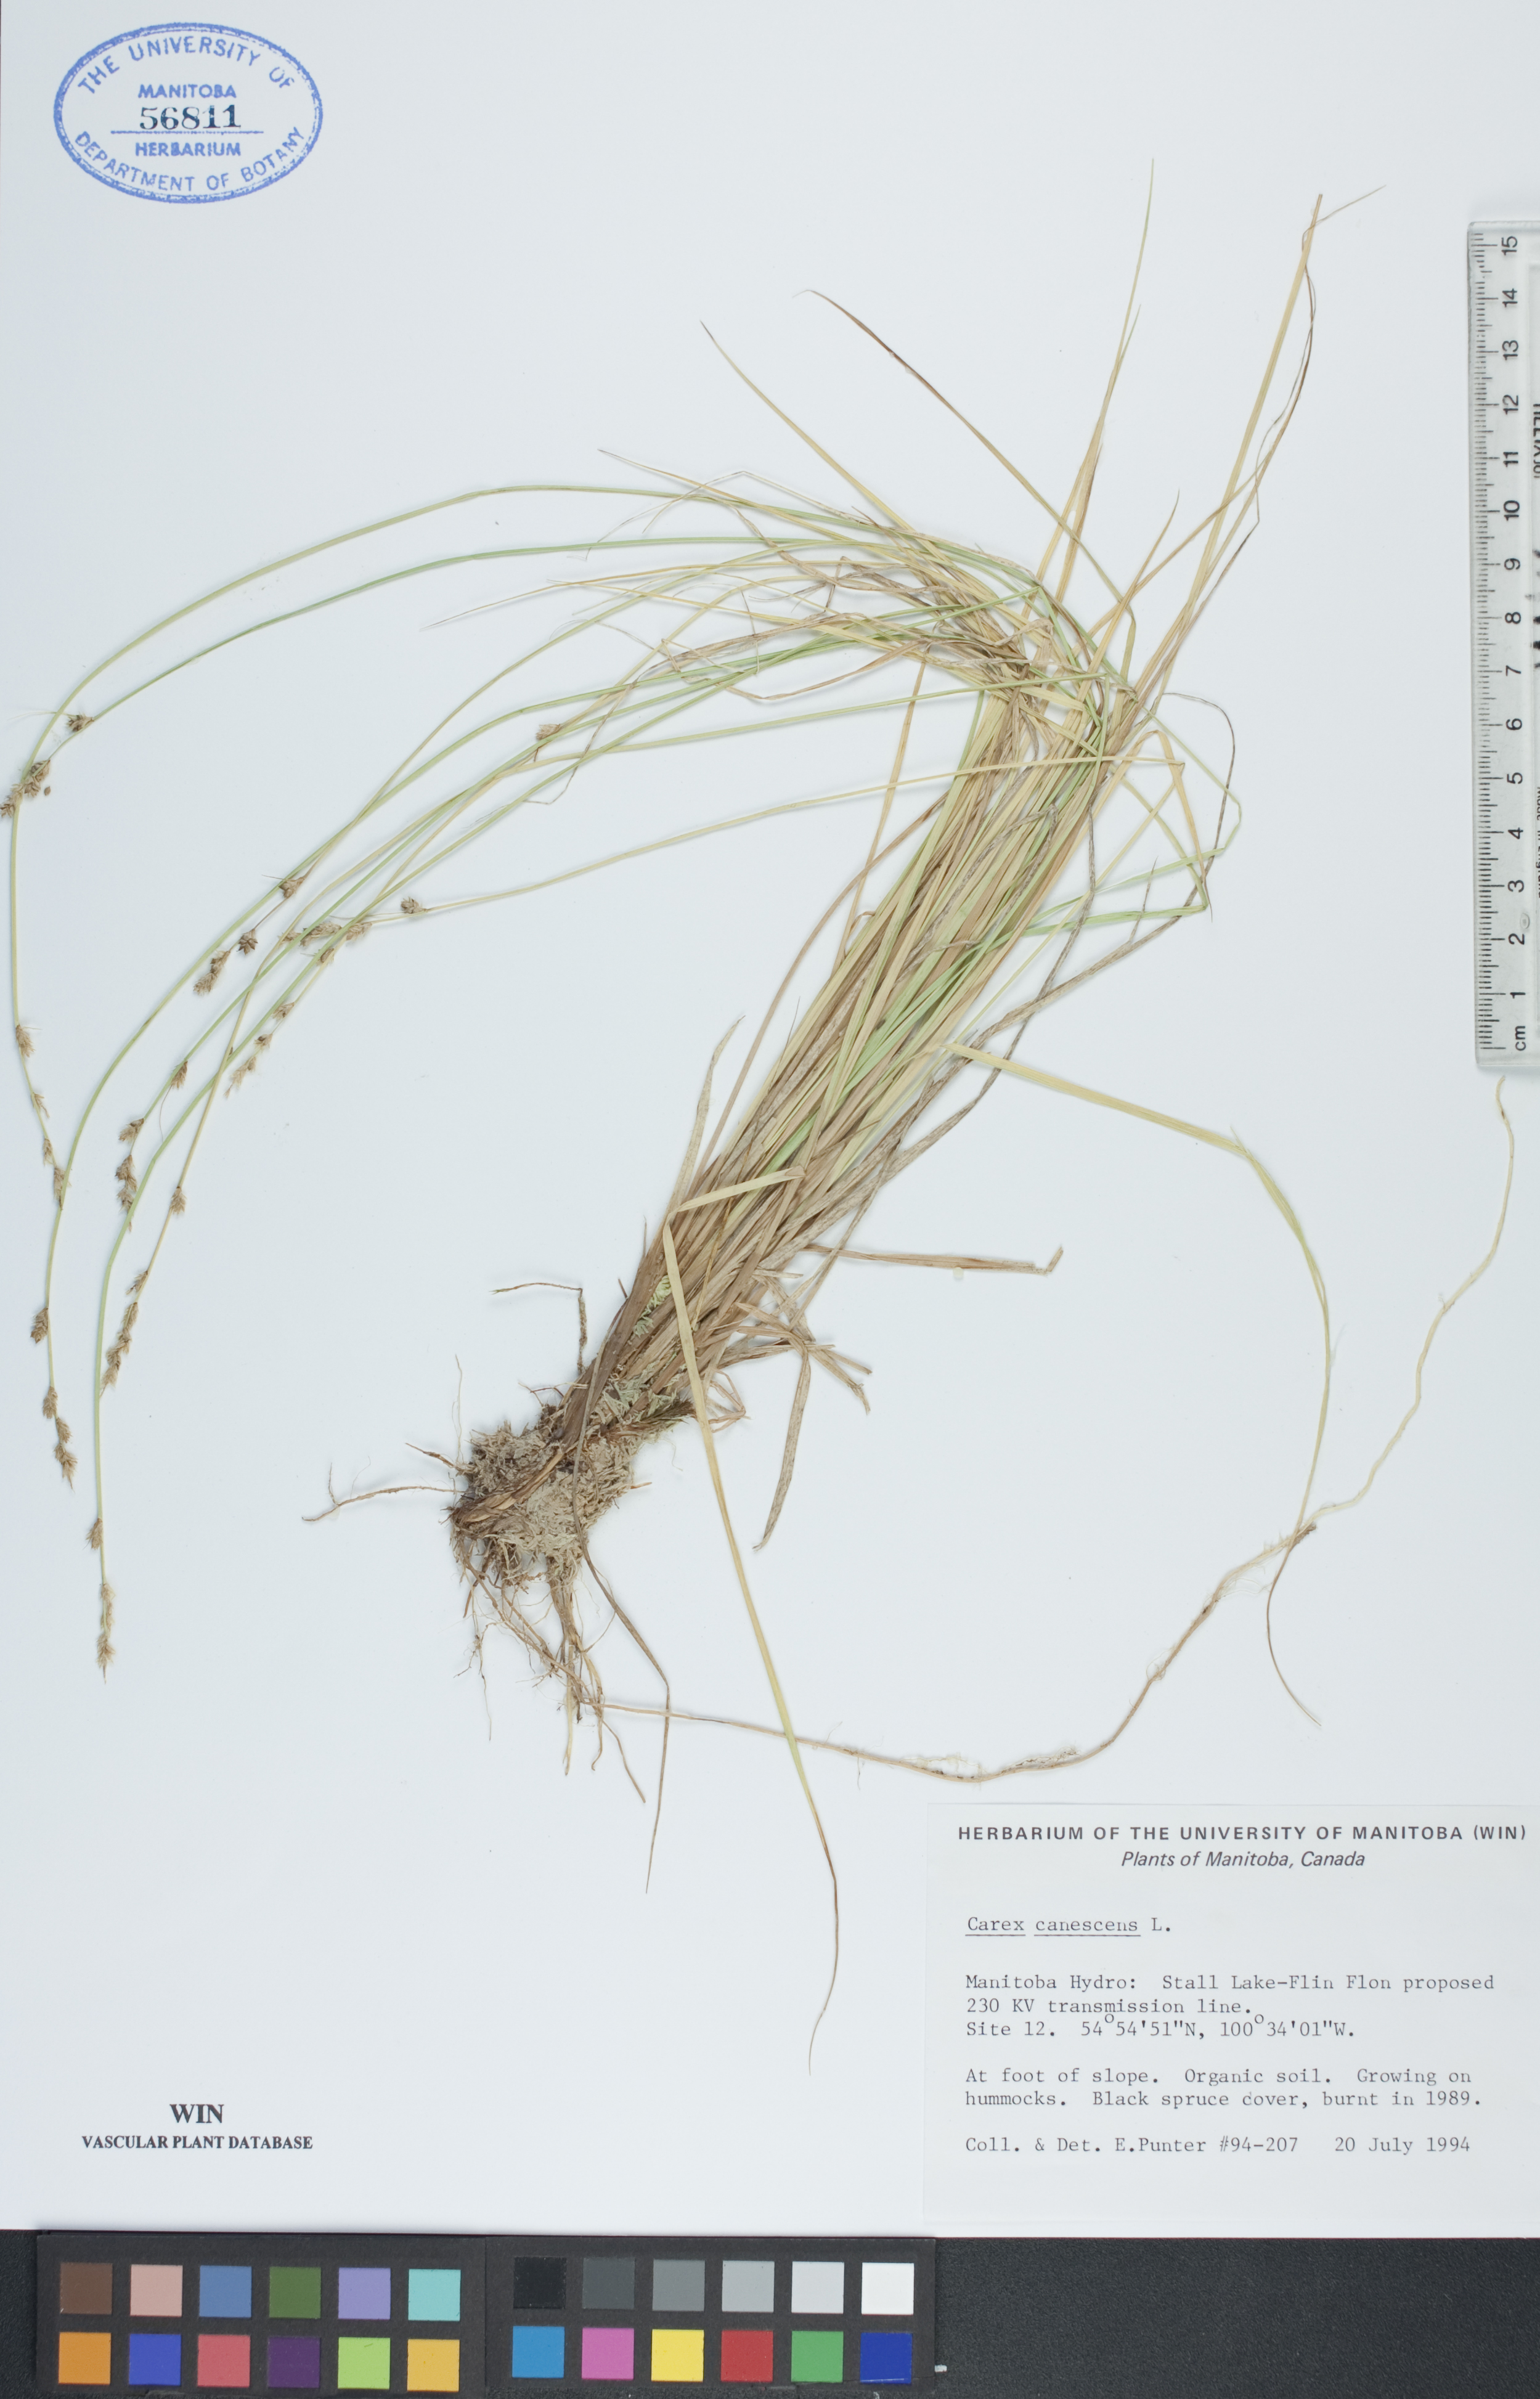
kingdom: Plantae
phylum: Tracheophyta
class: Liliopsida
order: Poales
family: Cyperaceae
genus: Carex
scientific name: Carex canescens
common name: White sedge
